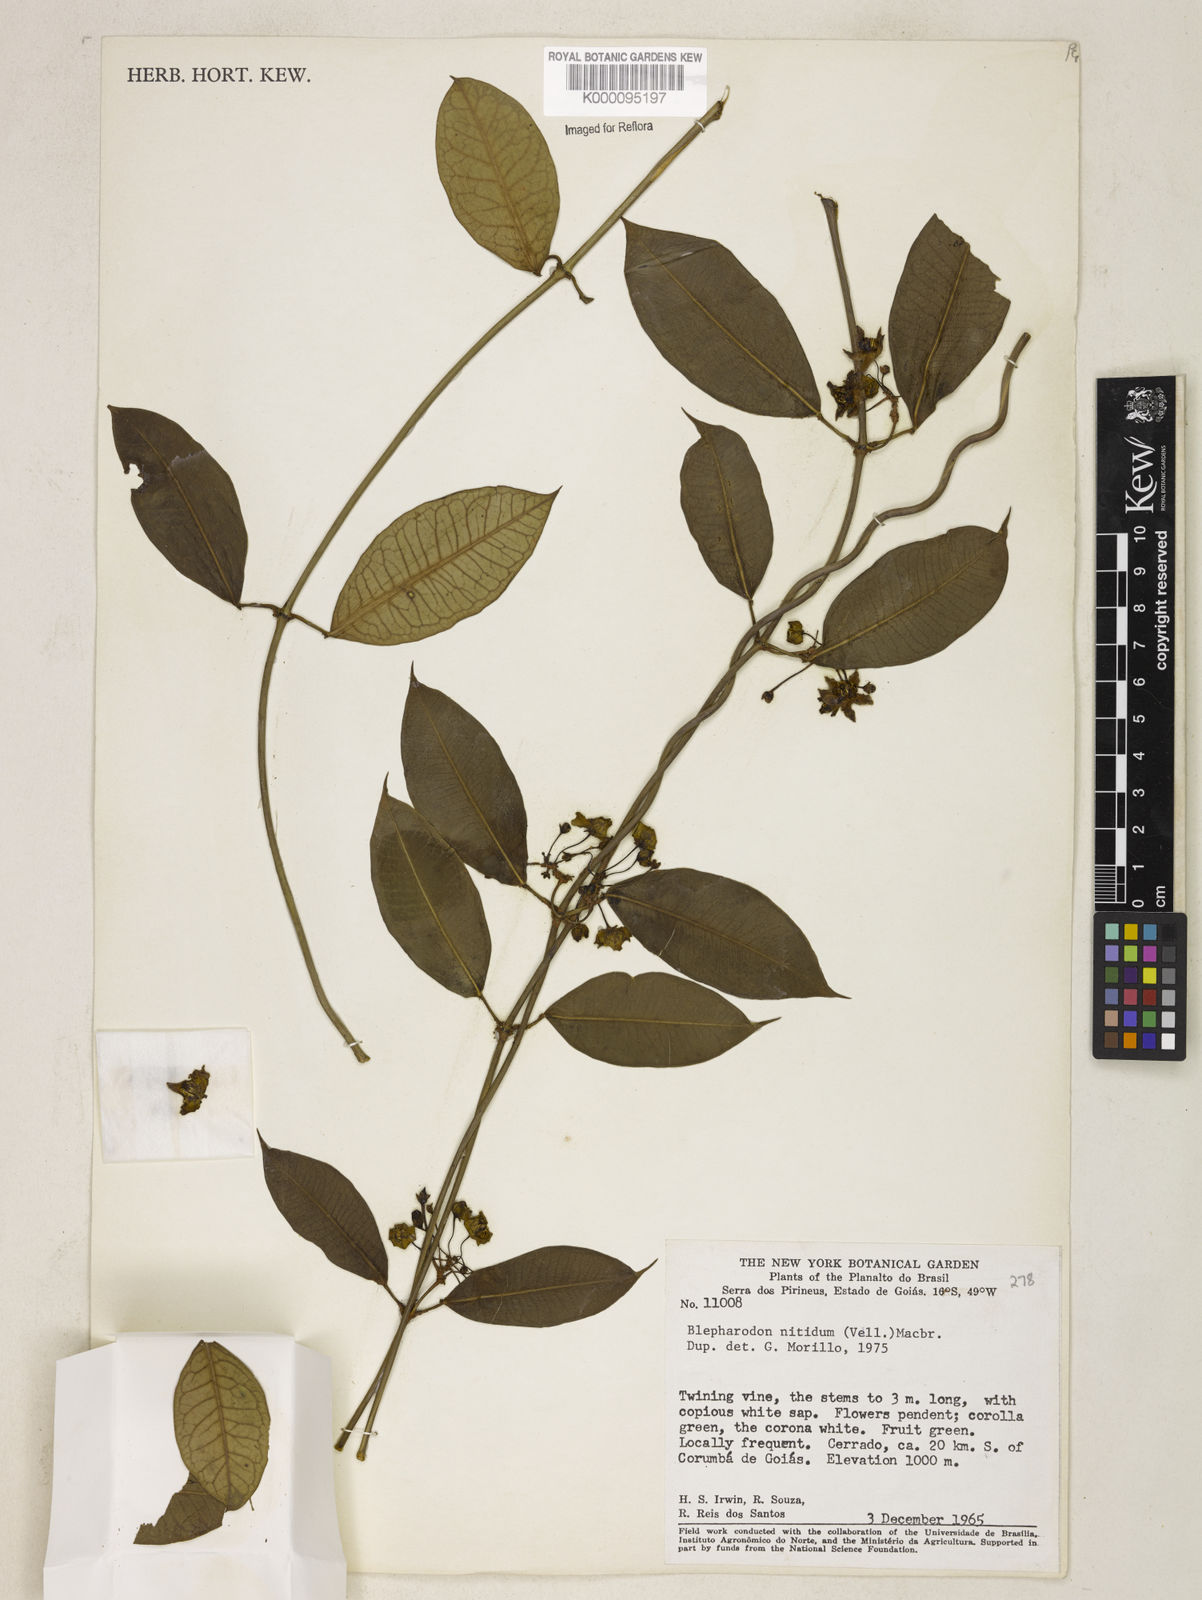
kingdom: Plantae
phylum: Tracheophyta
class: Magnoliopsida
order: Gentianales
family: Apocynaceae
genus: Blepharodon
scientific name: Blepharodon pictum
